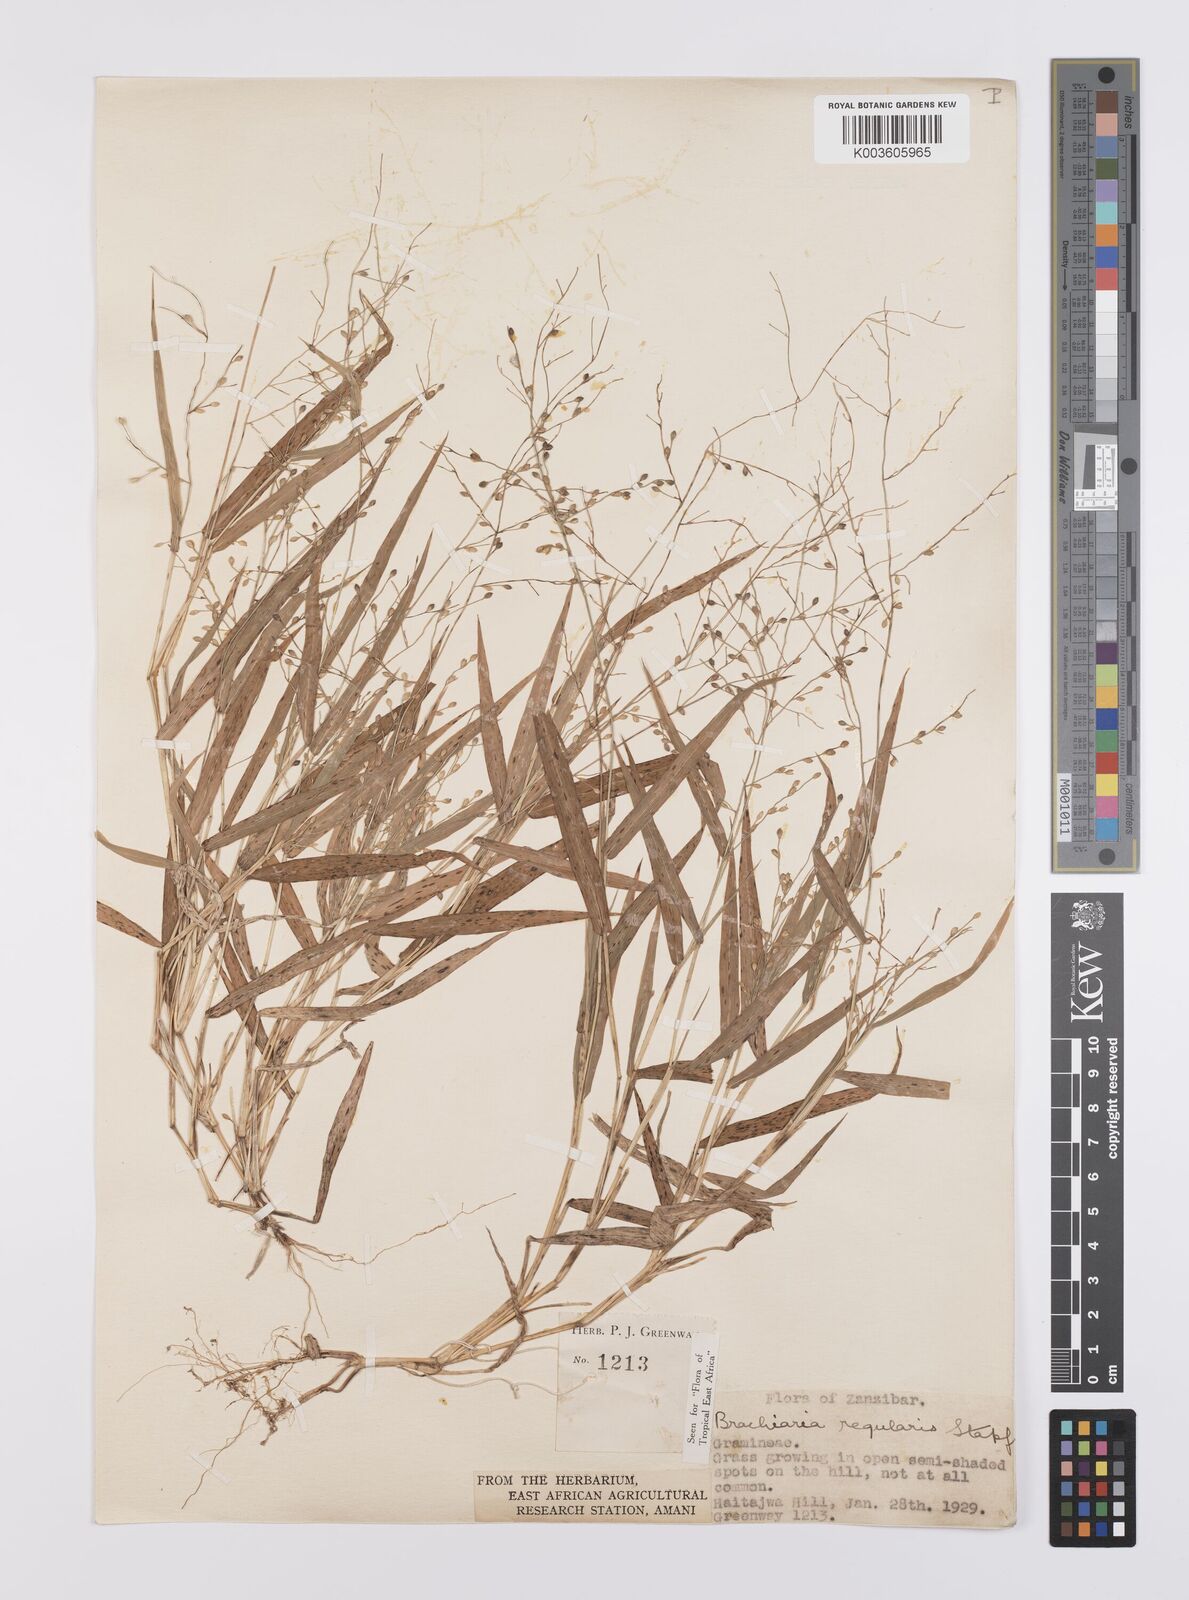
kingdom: Plantae
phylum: Tracheophyta
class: Liliopsida
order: Poales
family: Poaceae
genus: Urochloa
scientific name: Urochloa deflexa
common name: Guinea millet
